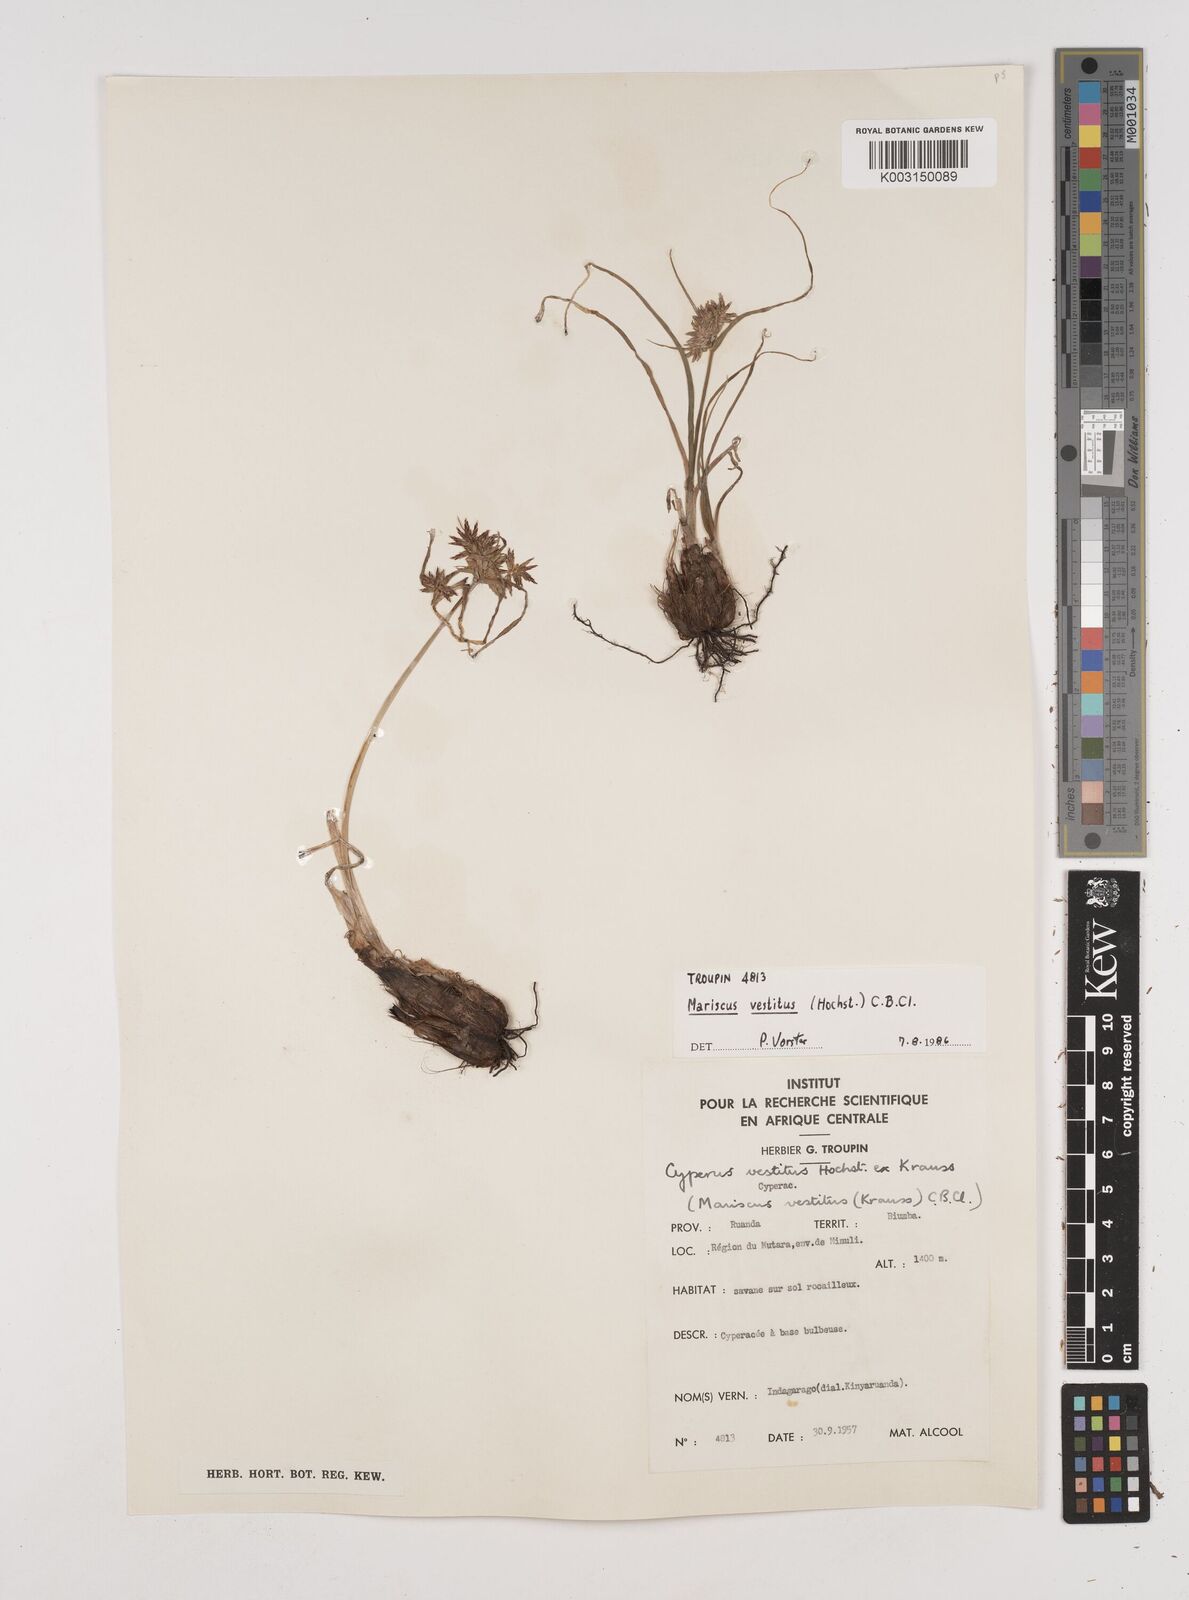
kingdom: Plantae
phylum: Tracheophyta
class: Liliopsida
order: Poales
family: Cyperaceae
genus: Cyperus
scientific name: Cyperus vestitus
